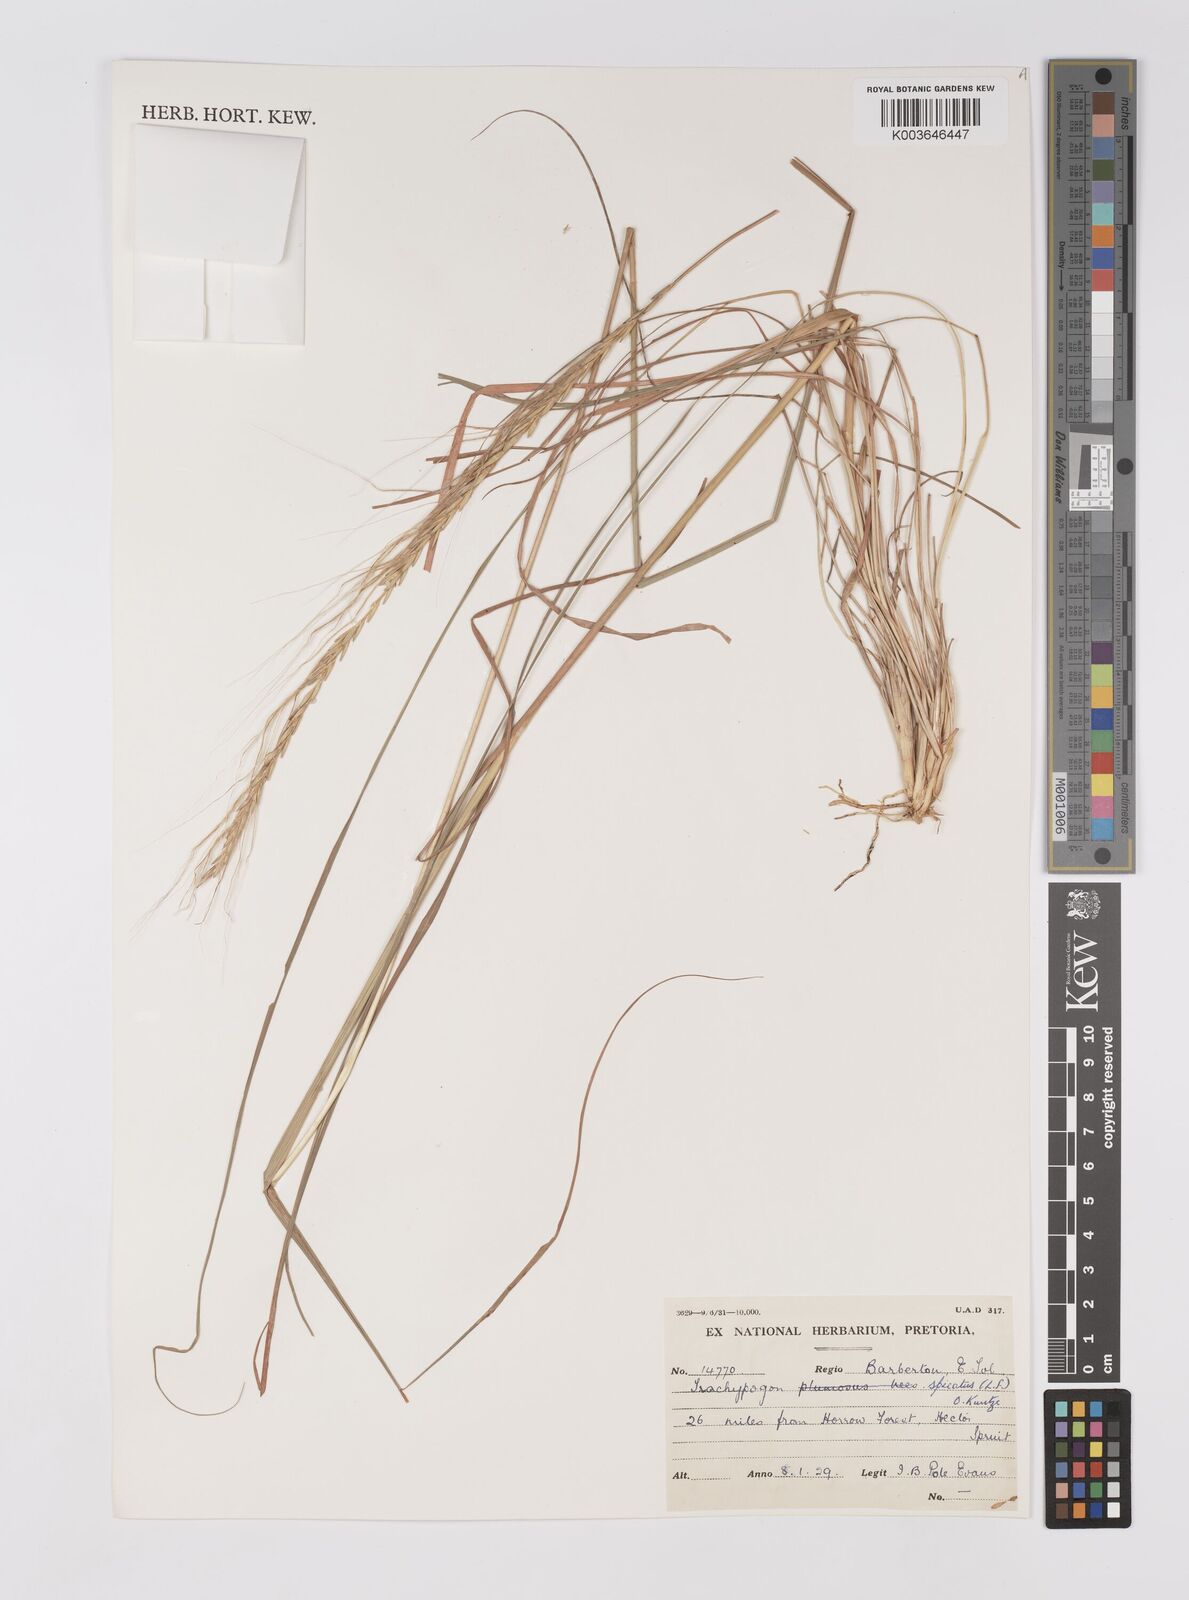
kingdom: Plantae
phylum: Tracheophyta
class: Liliopsida
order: Poales
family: Poaceae
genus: Trachypogon
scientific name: Trachypogon spicatus
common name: Crinkle-awn
